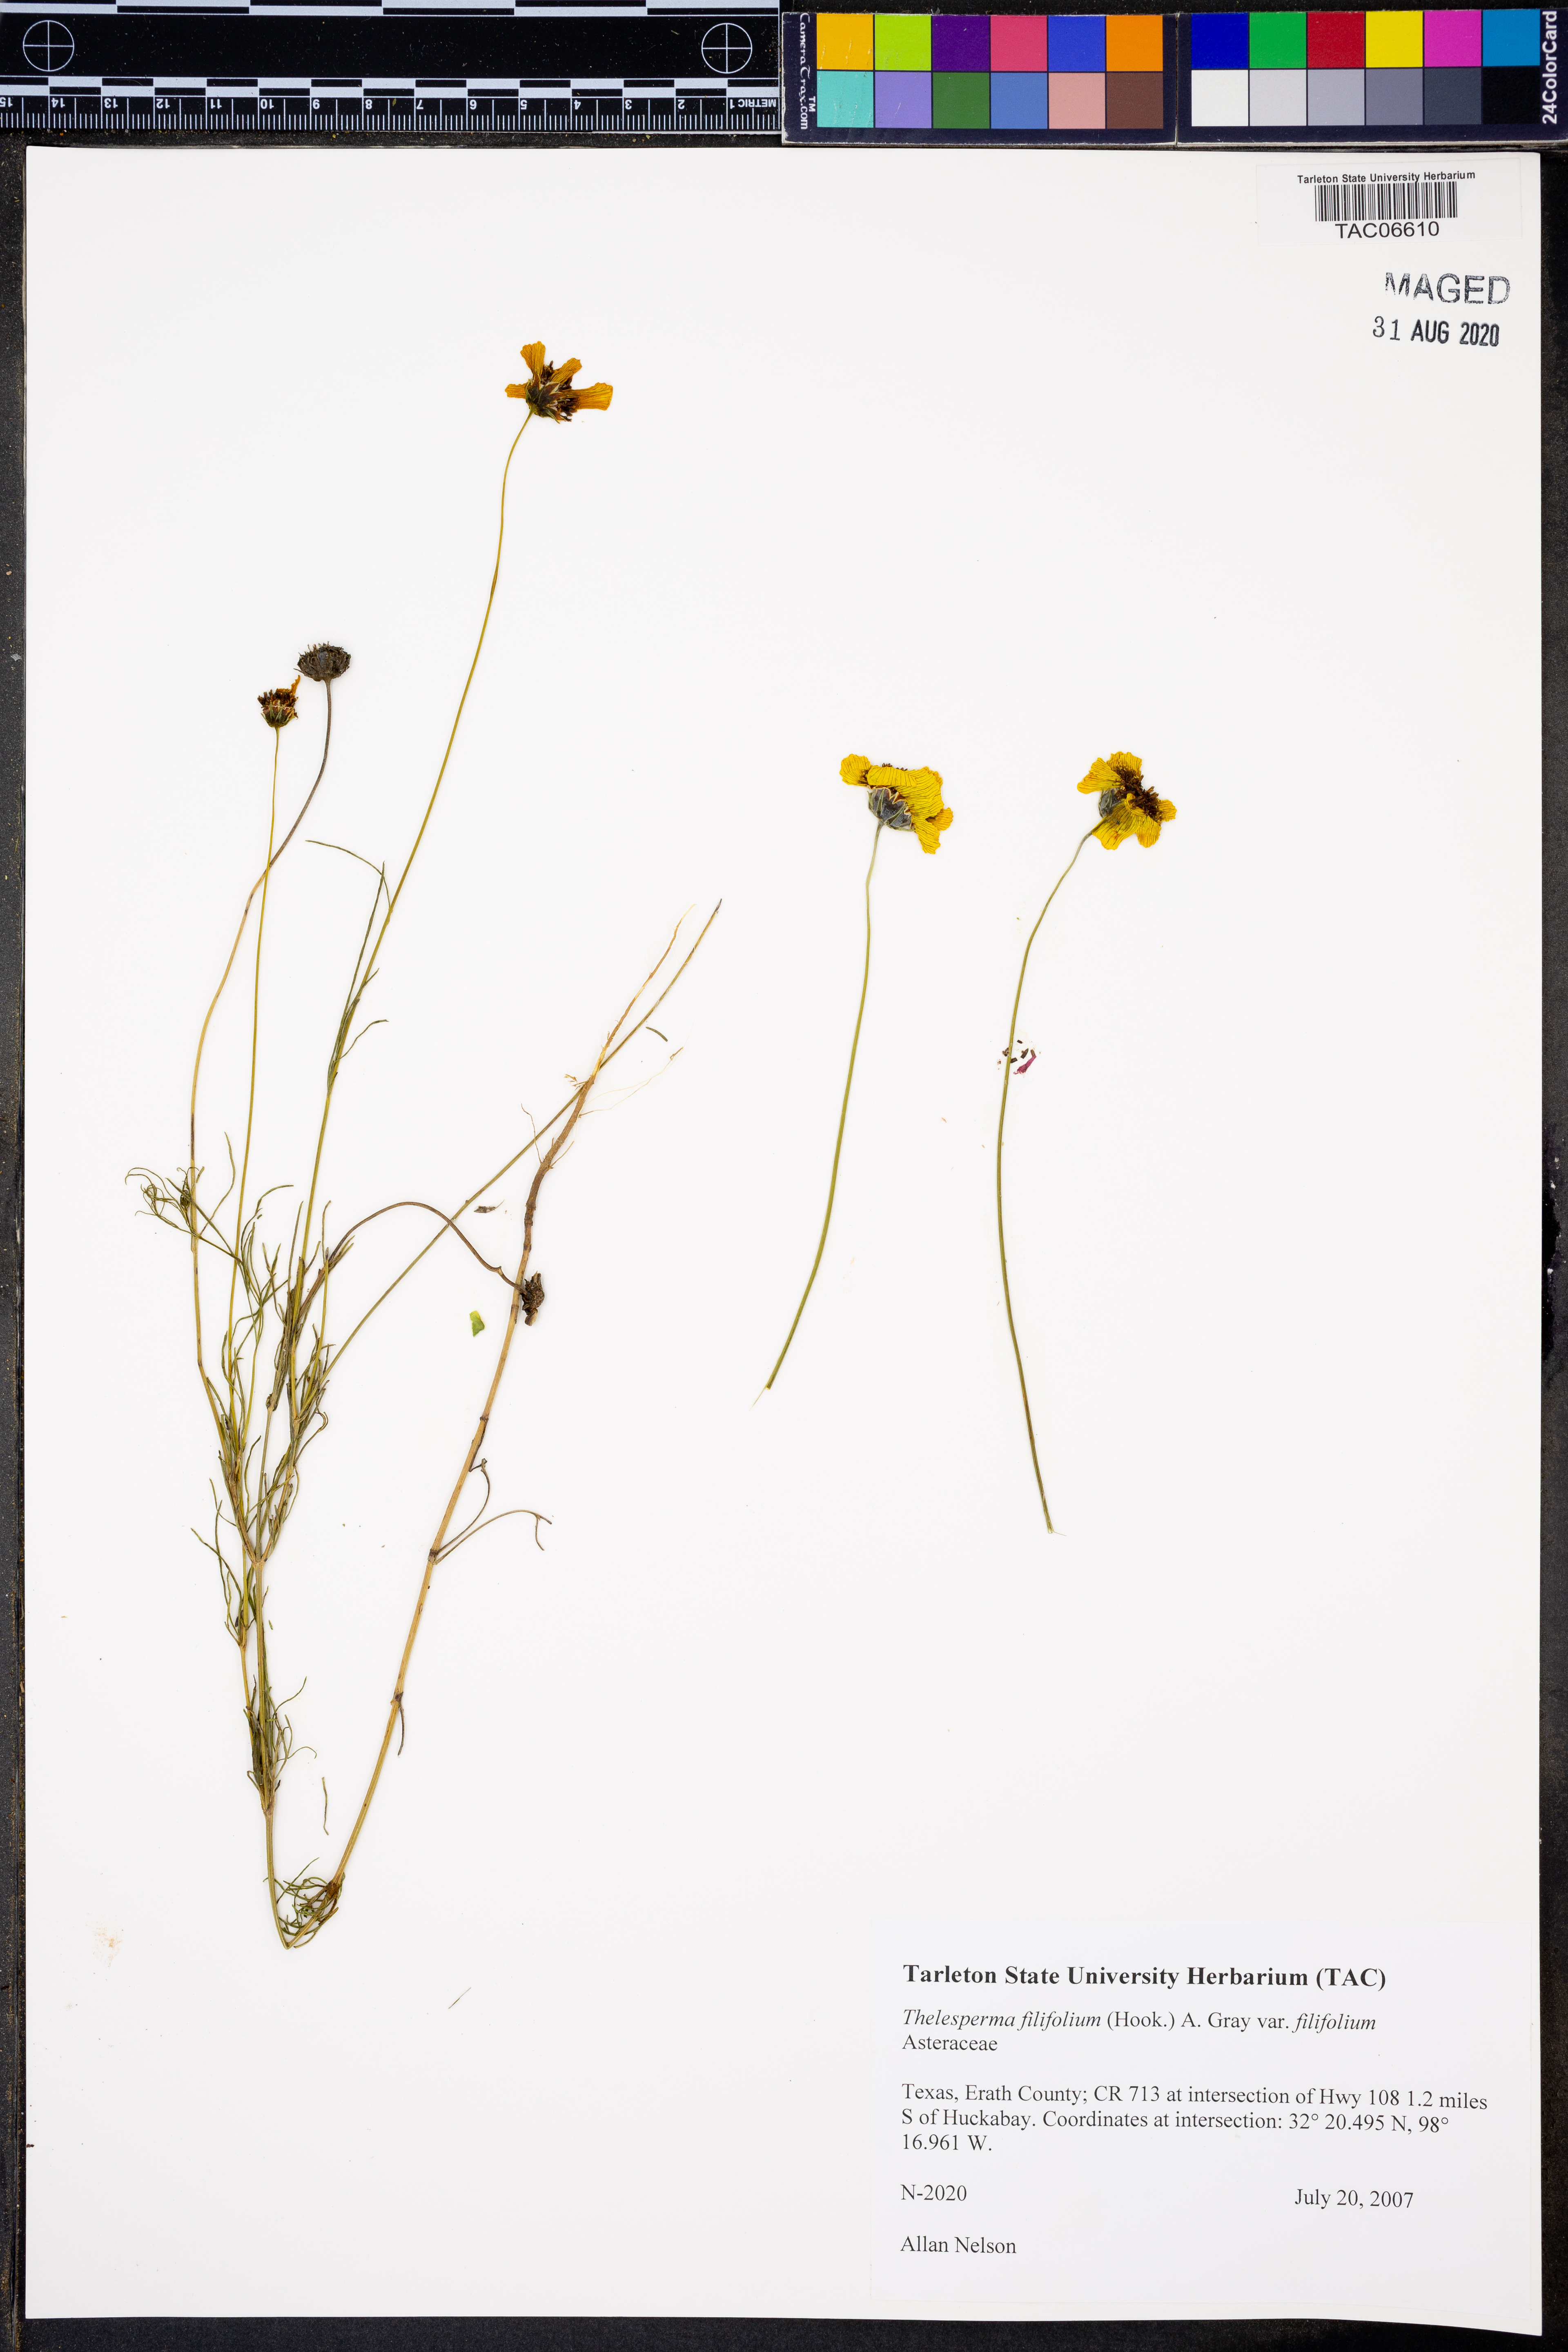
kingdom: Plantae
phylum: Tracheophyta
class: Magnoliopsida
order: Asterales
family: Asteraceae
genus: Thelesperma
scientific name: Thelesperma filifolium
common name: Stiff greenthread
